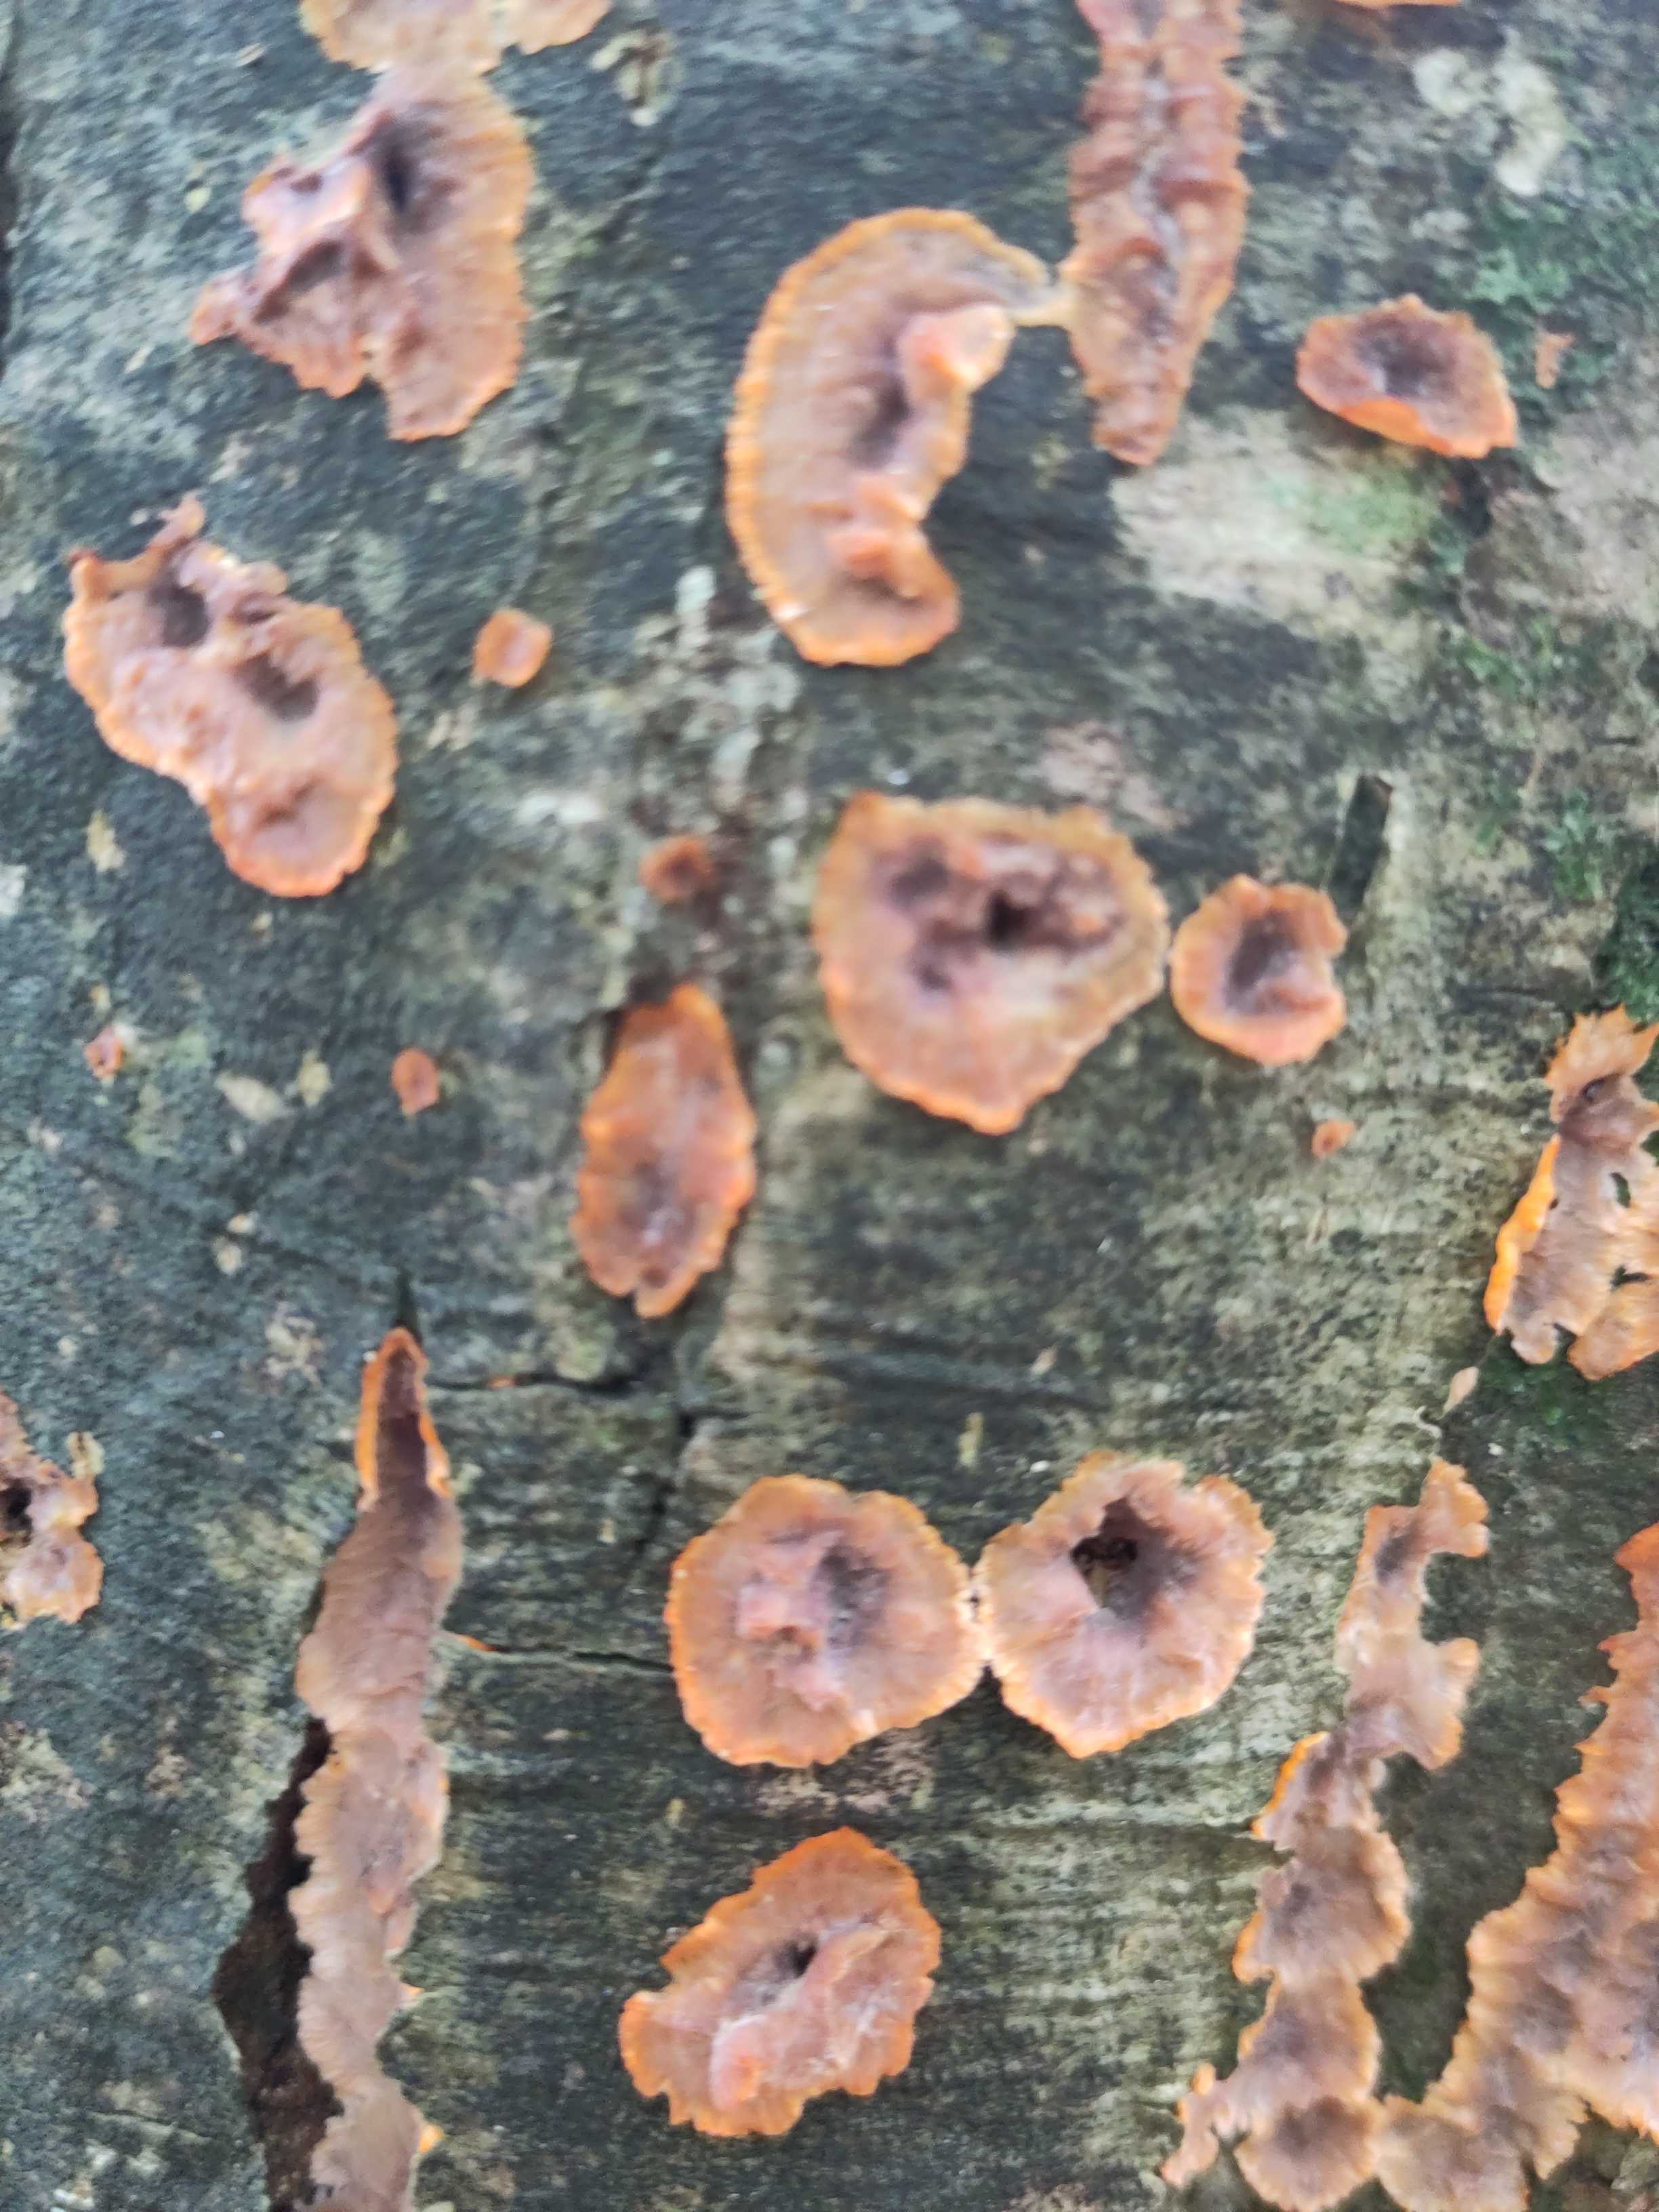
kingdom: Fungi
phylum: Basidiomycota
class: Agaricomycetes
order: Polyporales
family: Meruliaceae
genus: Phlebia
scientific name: Phlebia radiata
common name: stråle-åresvamp
